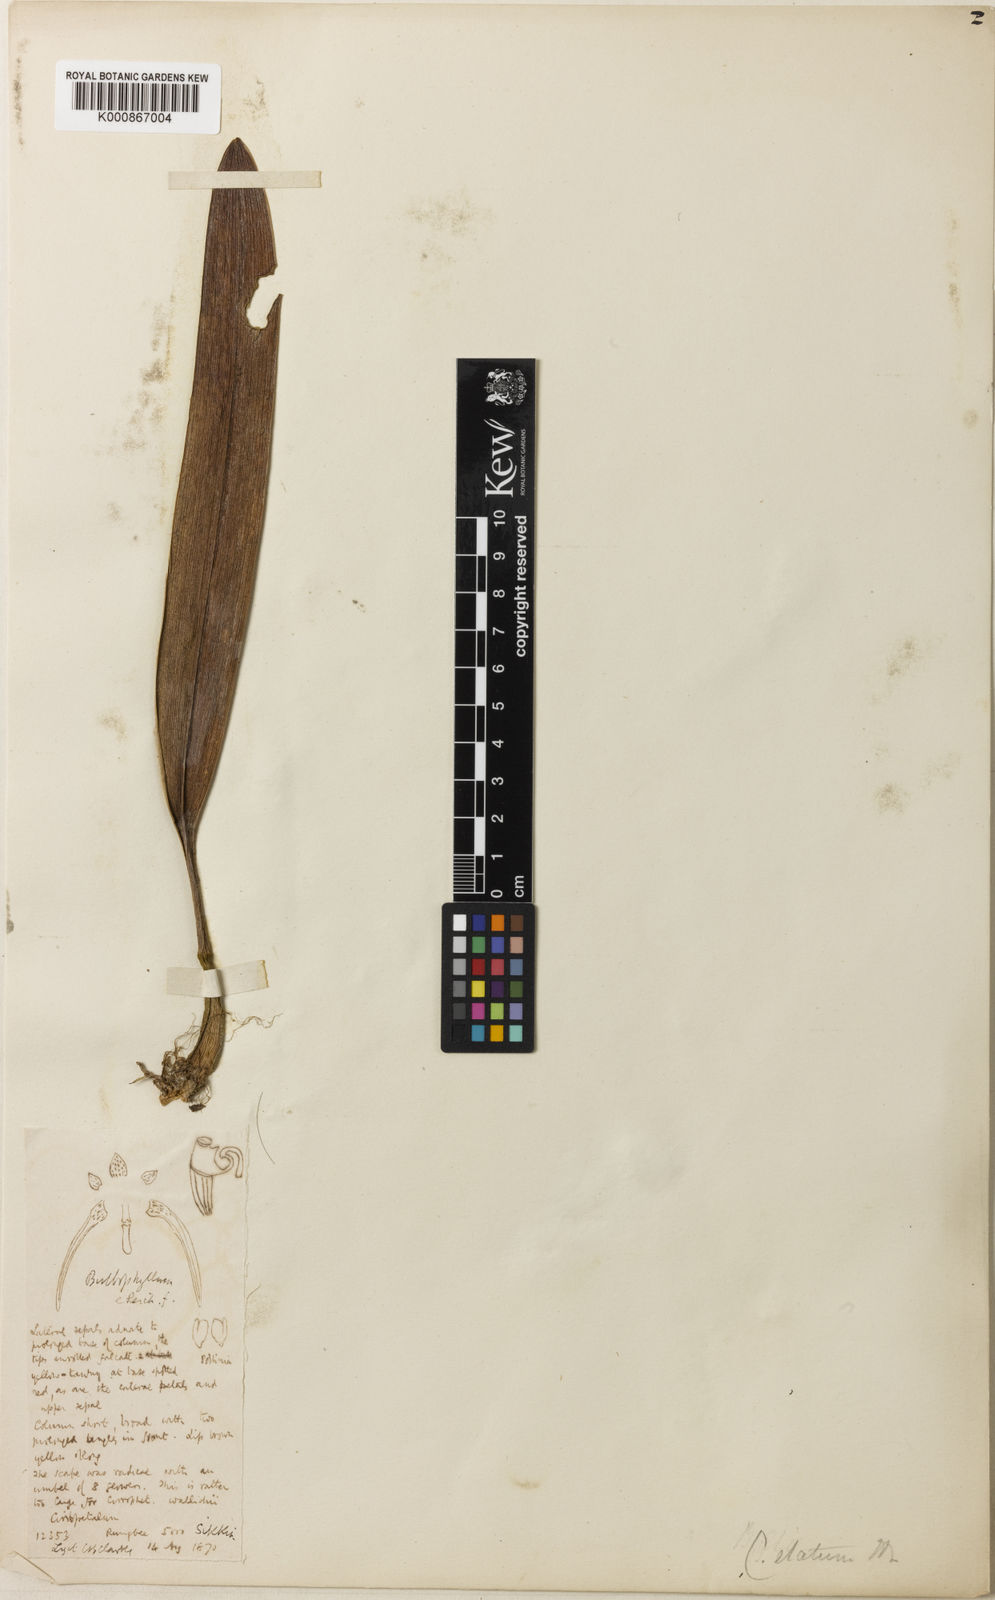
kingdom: Plantae
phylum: Tracheophyta
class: Liliopsida
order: Asparagales
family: Orchidaceae
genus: Bulbophyllum
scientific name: Bulbophyllum elatum
